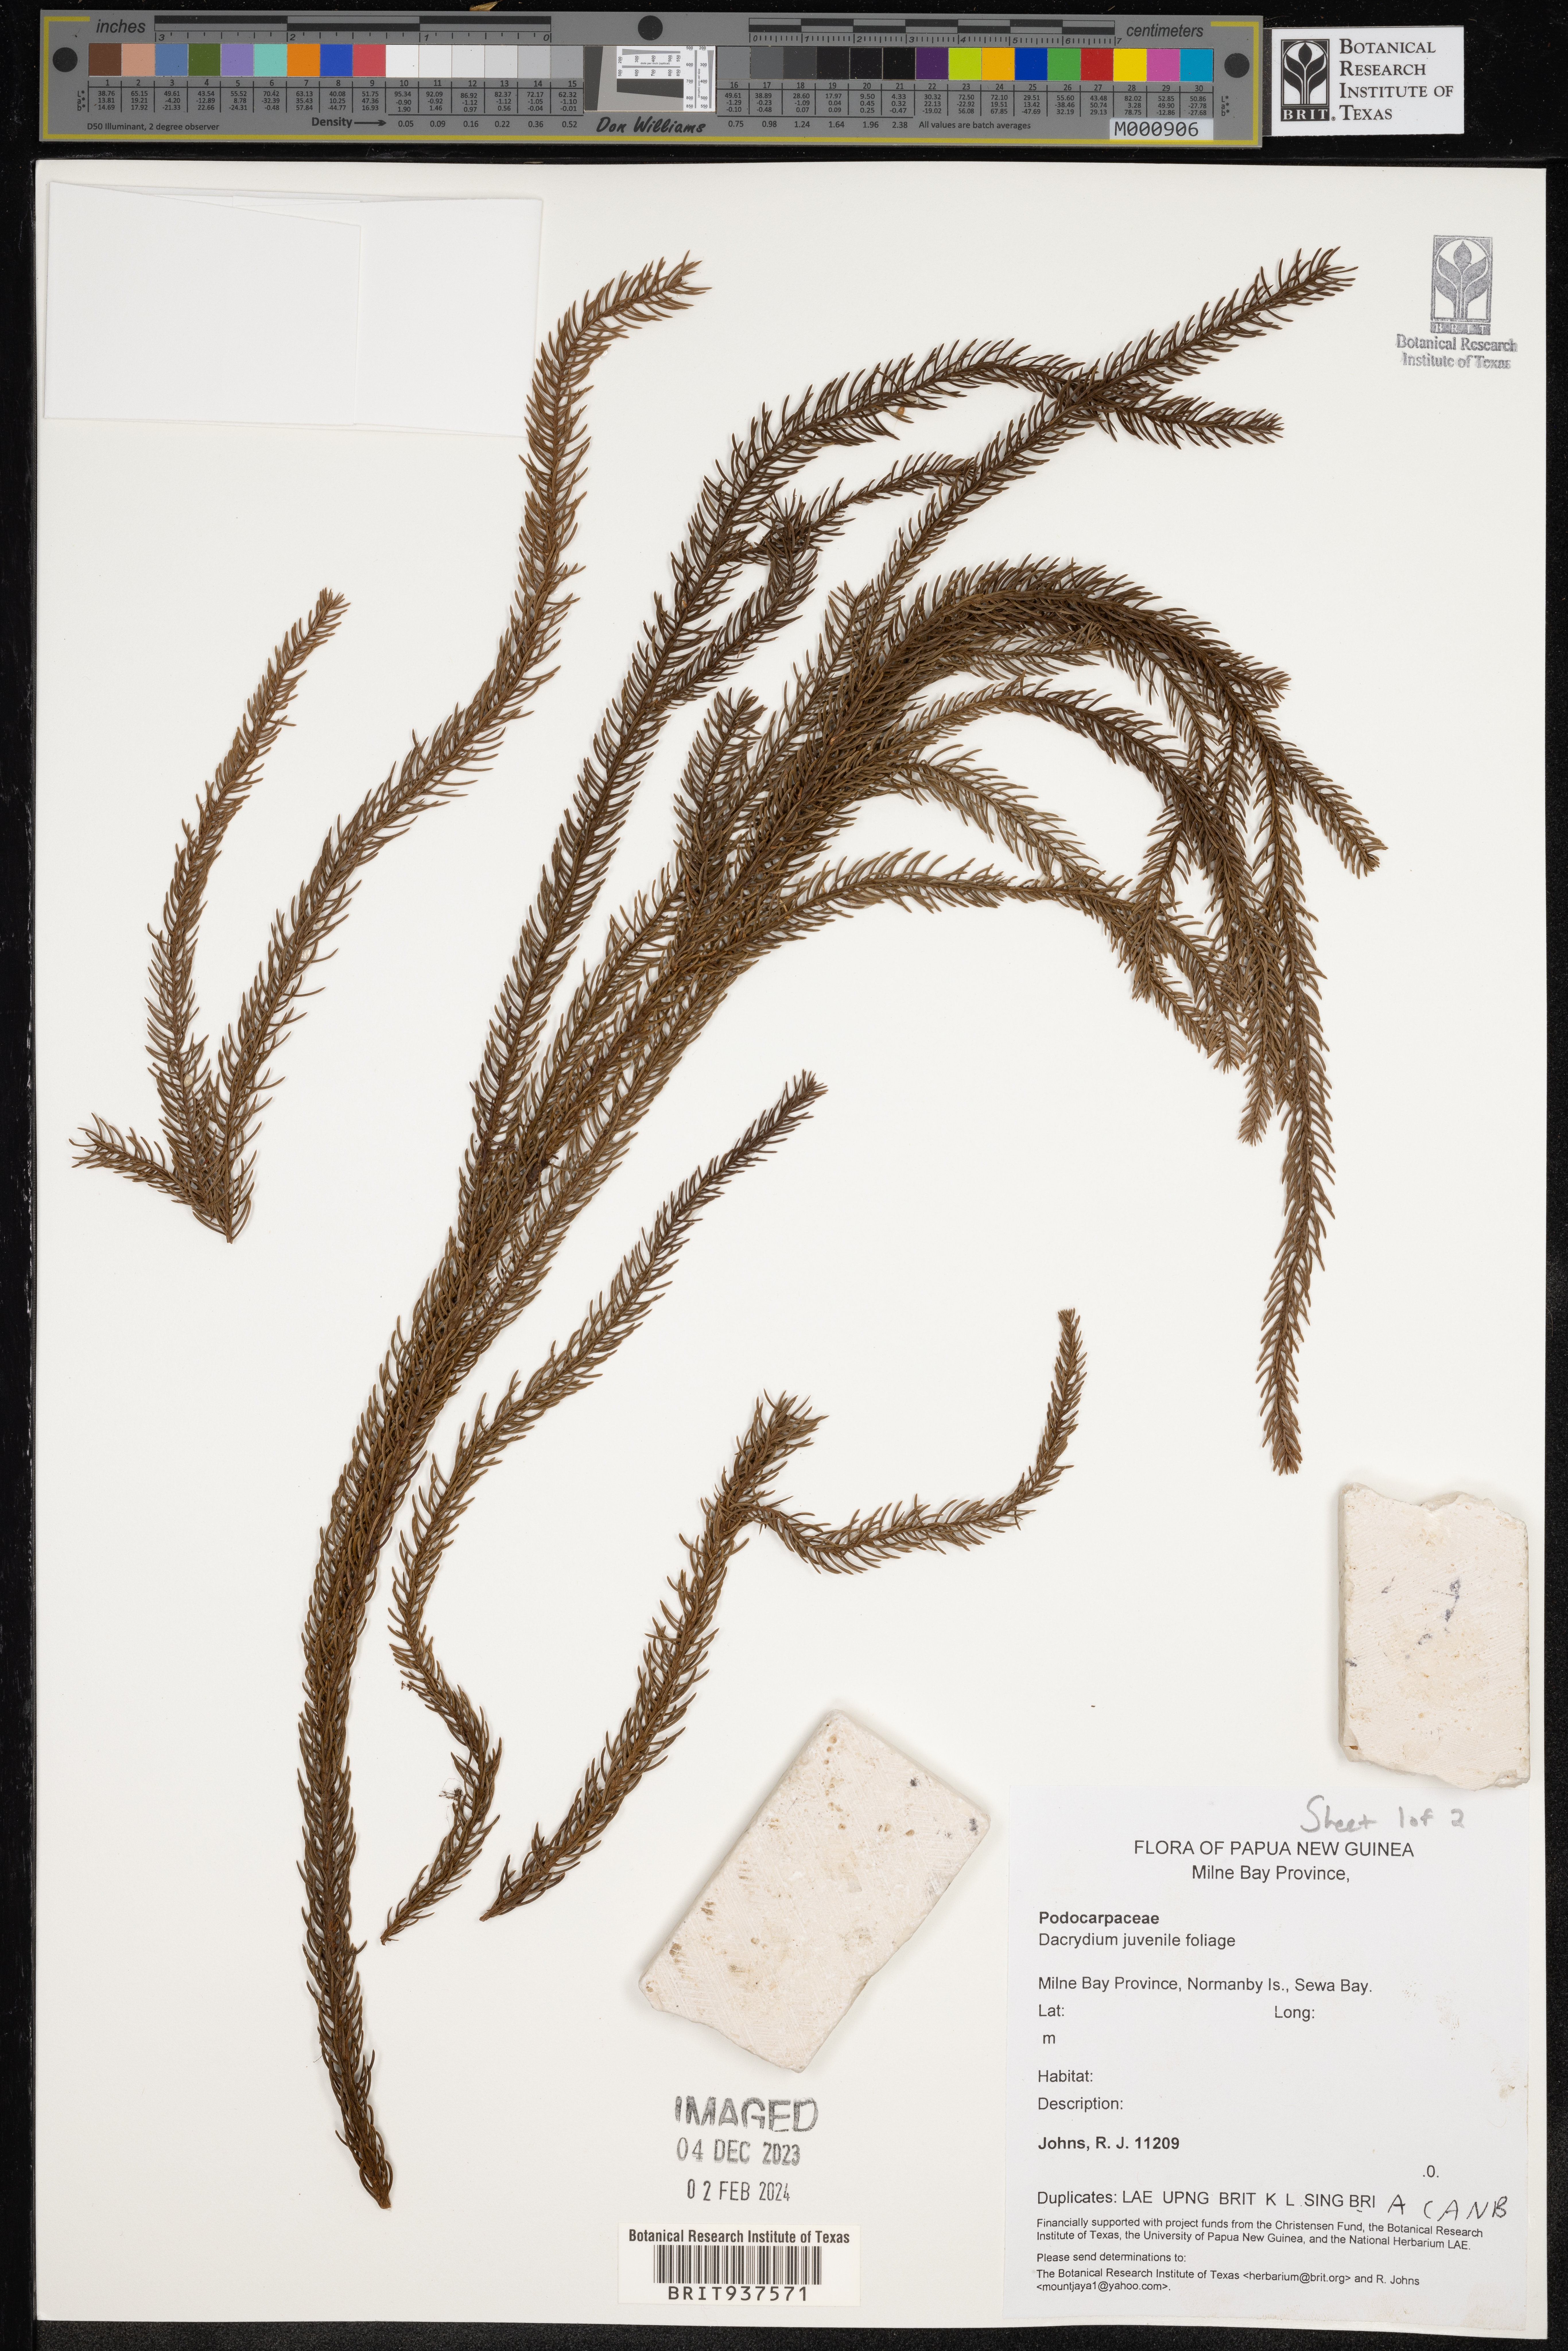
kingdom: Plantae
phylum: Tracheophyta
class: Pinopsida
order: Pinales
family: Podocarpaceae
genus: Dacrydium
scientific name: Dacrydium
